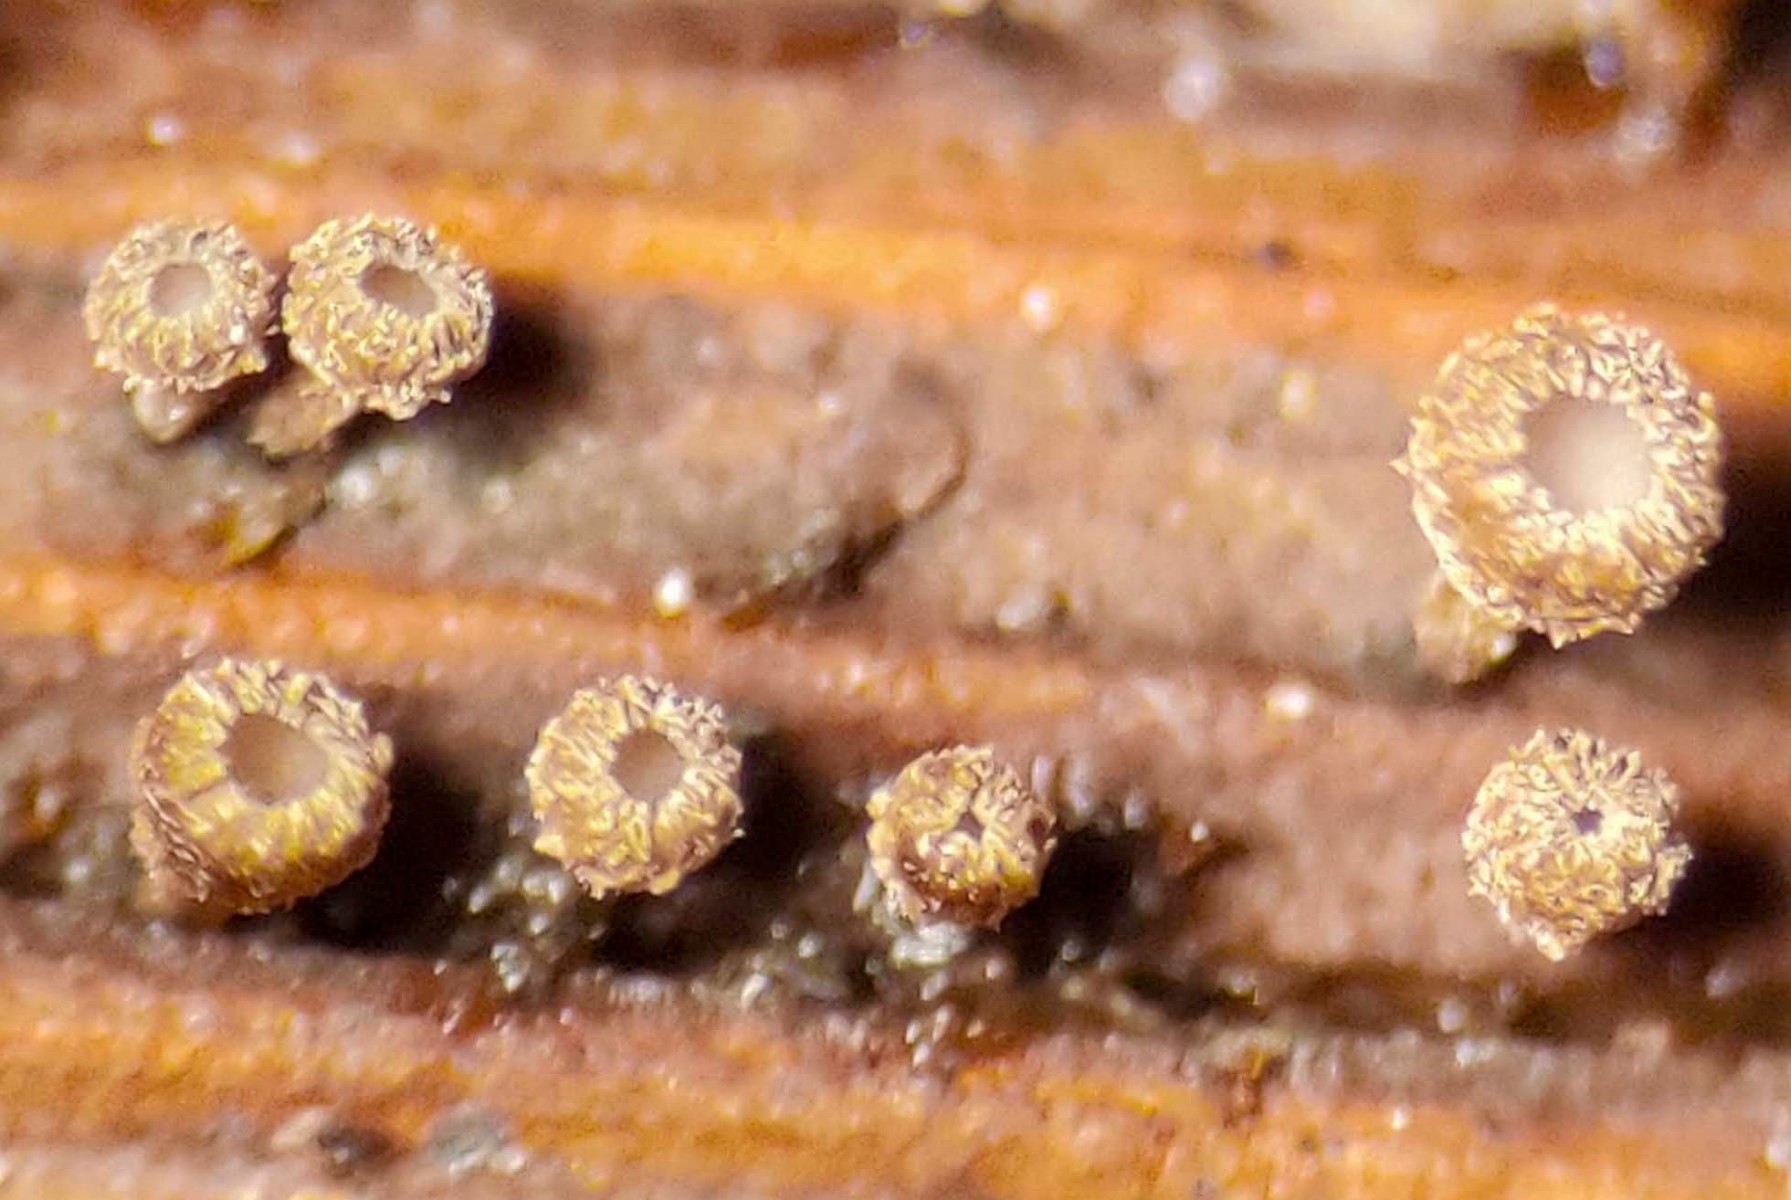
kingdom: Fungi
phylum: Ascomycota
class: Leotiomycetes
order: Helotiales
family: Lachnaceae
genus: Brunnipila
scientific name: Brunnipila clandestina
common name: hindbær-frynseskive
